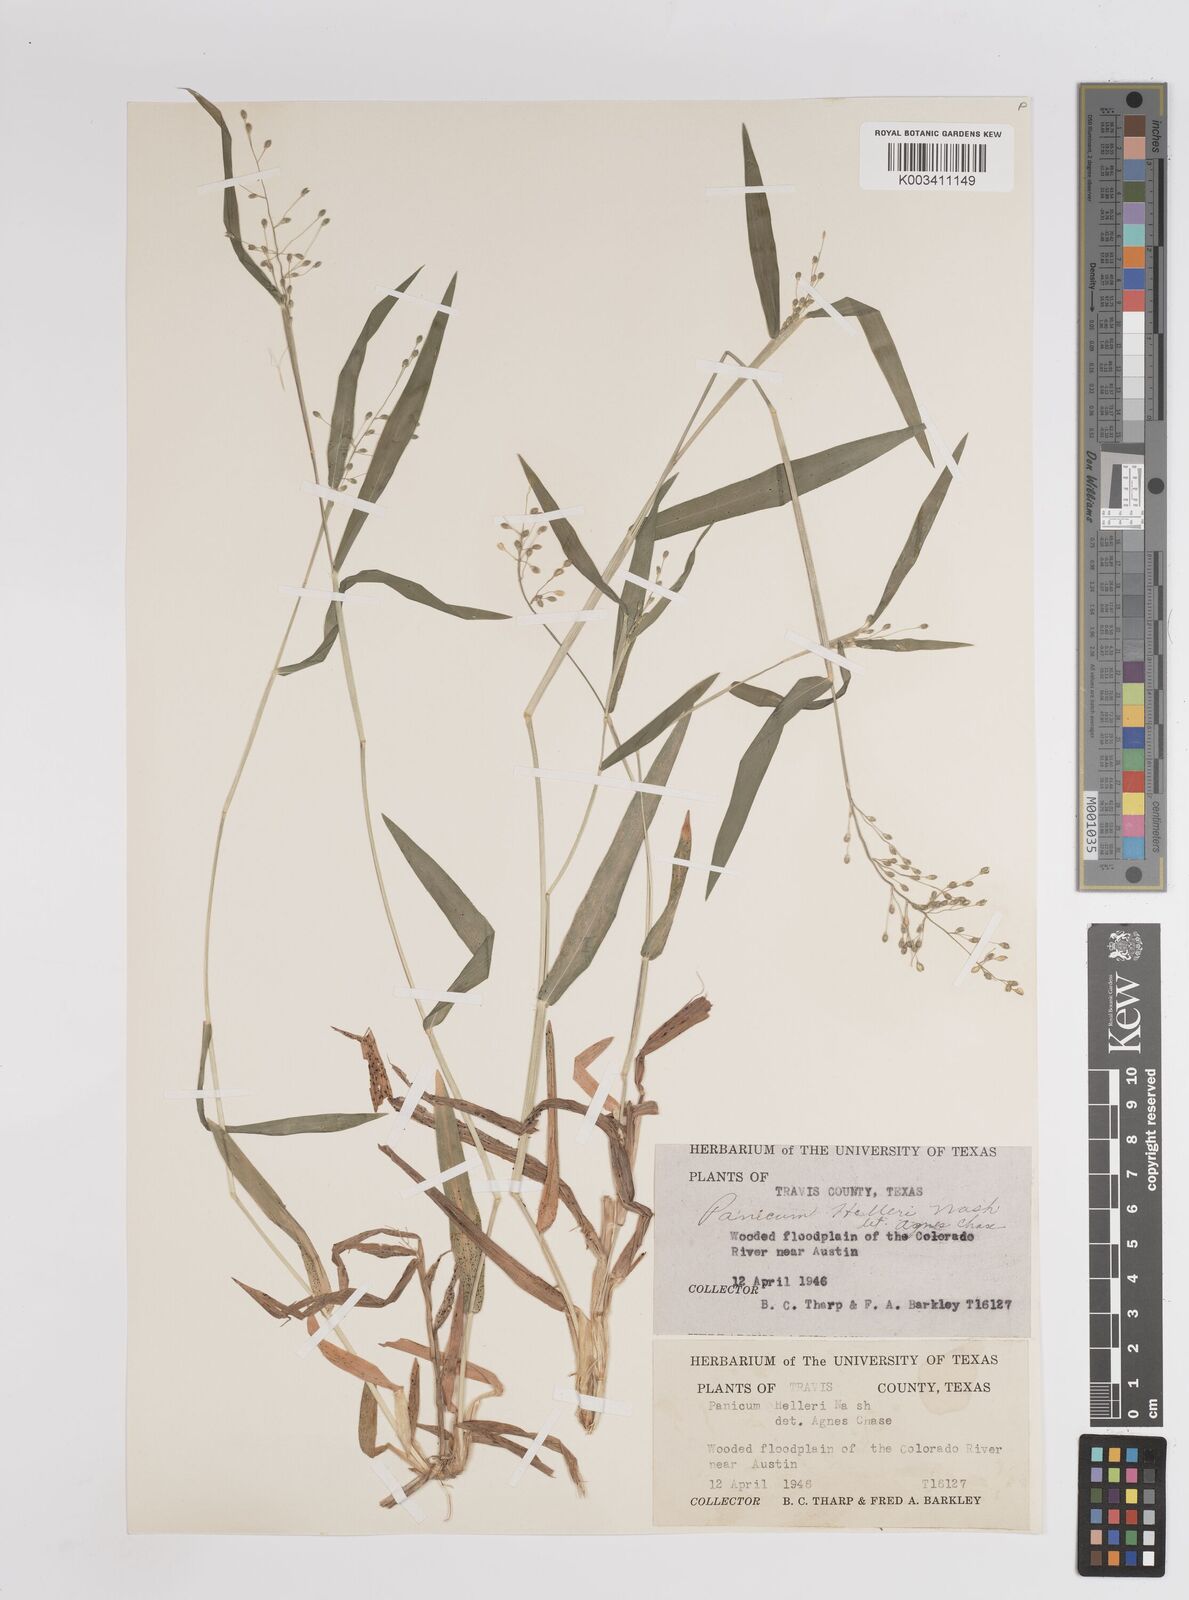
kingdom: Plantae
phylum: Tracheophyta
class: Liliopsida
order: Poales
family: Poaceae
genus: Dichanthelium
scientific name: Dichanthelium oligosanthes
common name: Few-anther obscuregrass
